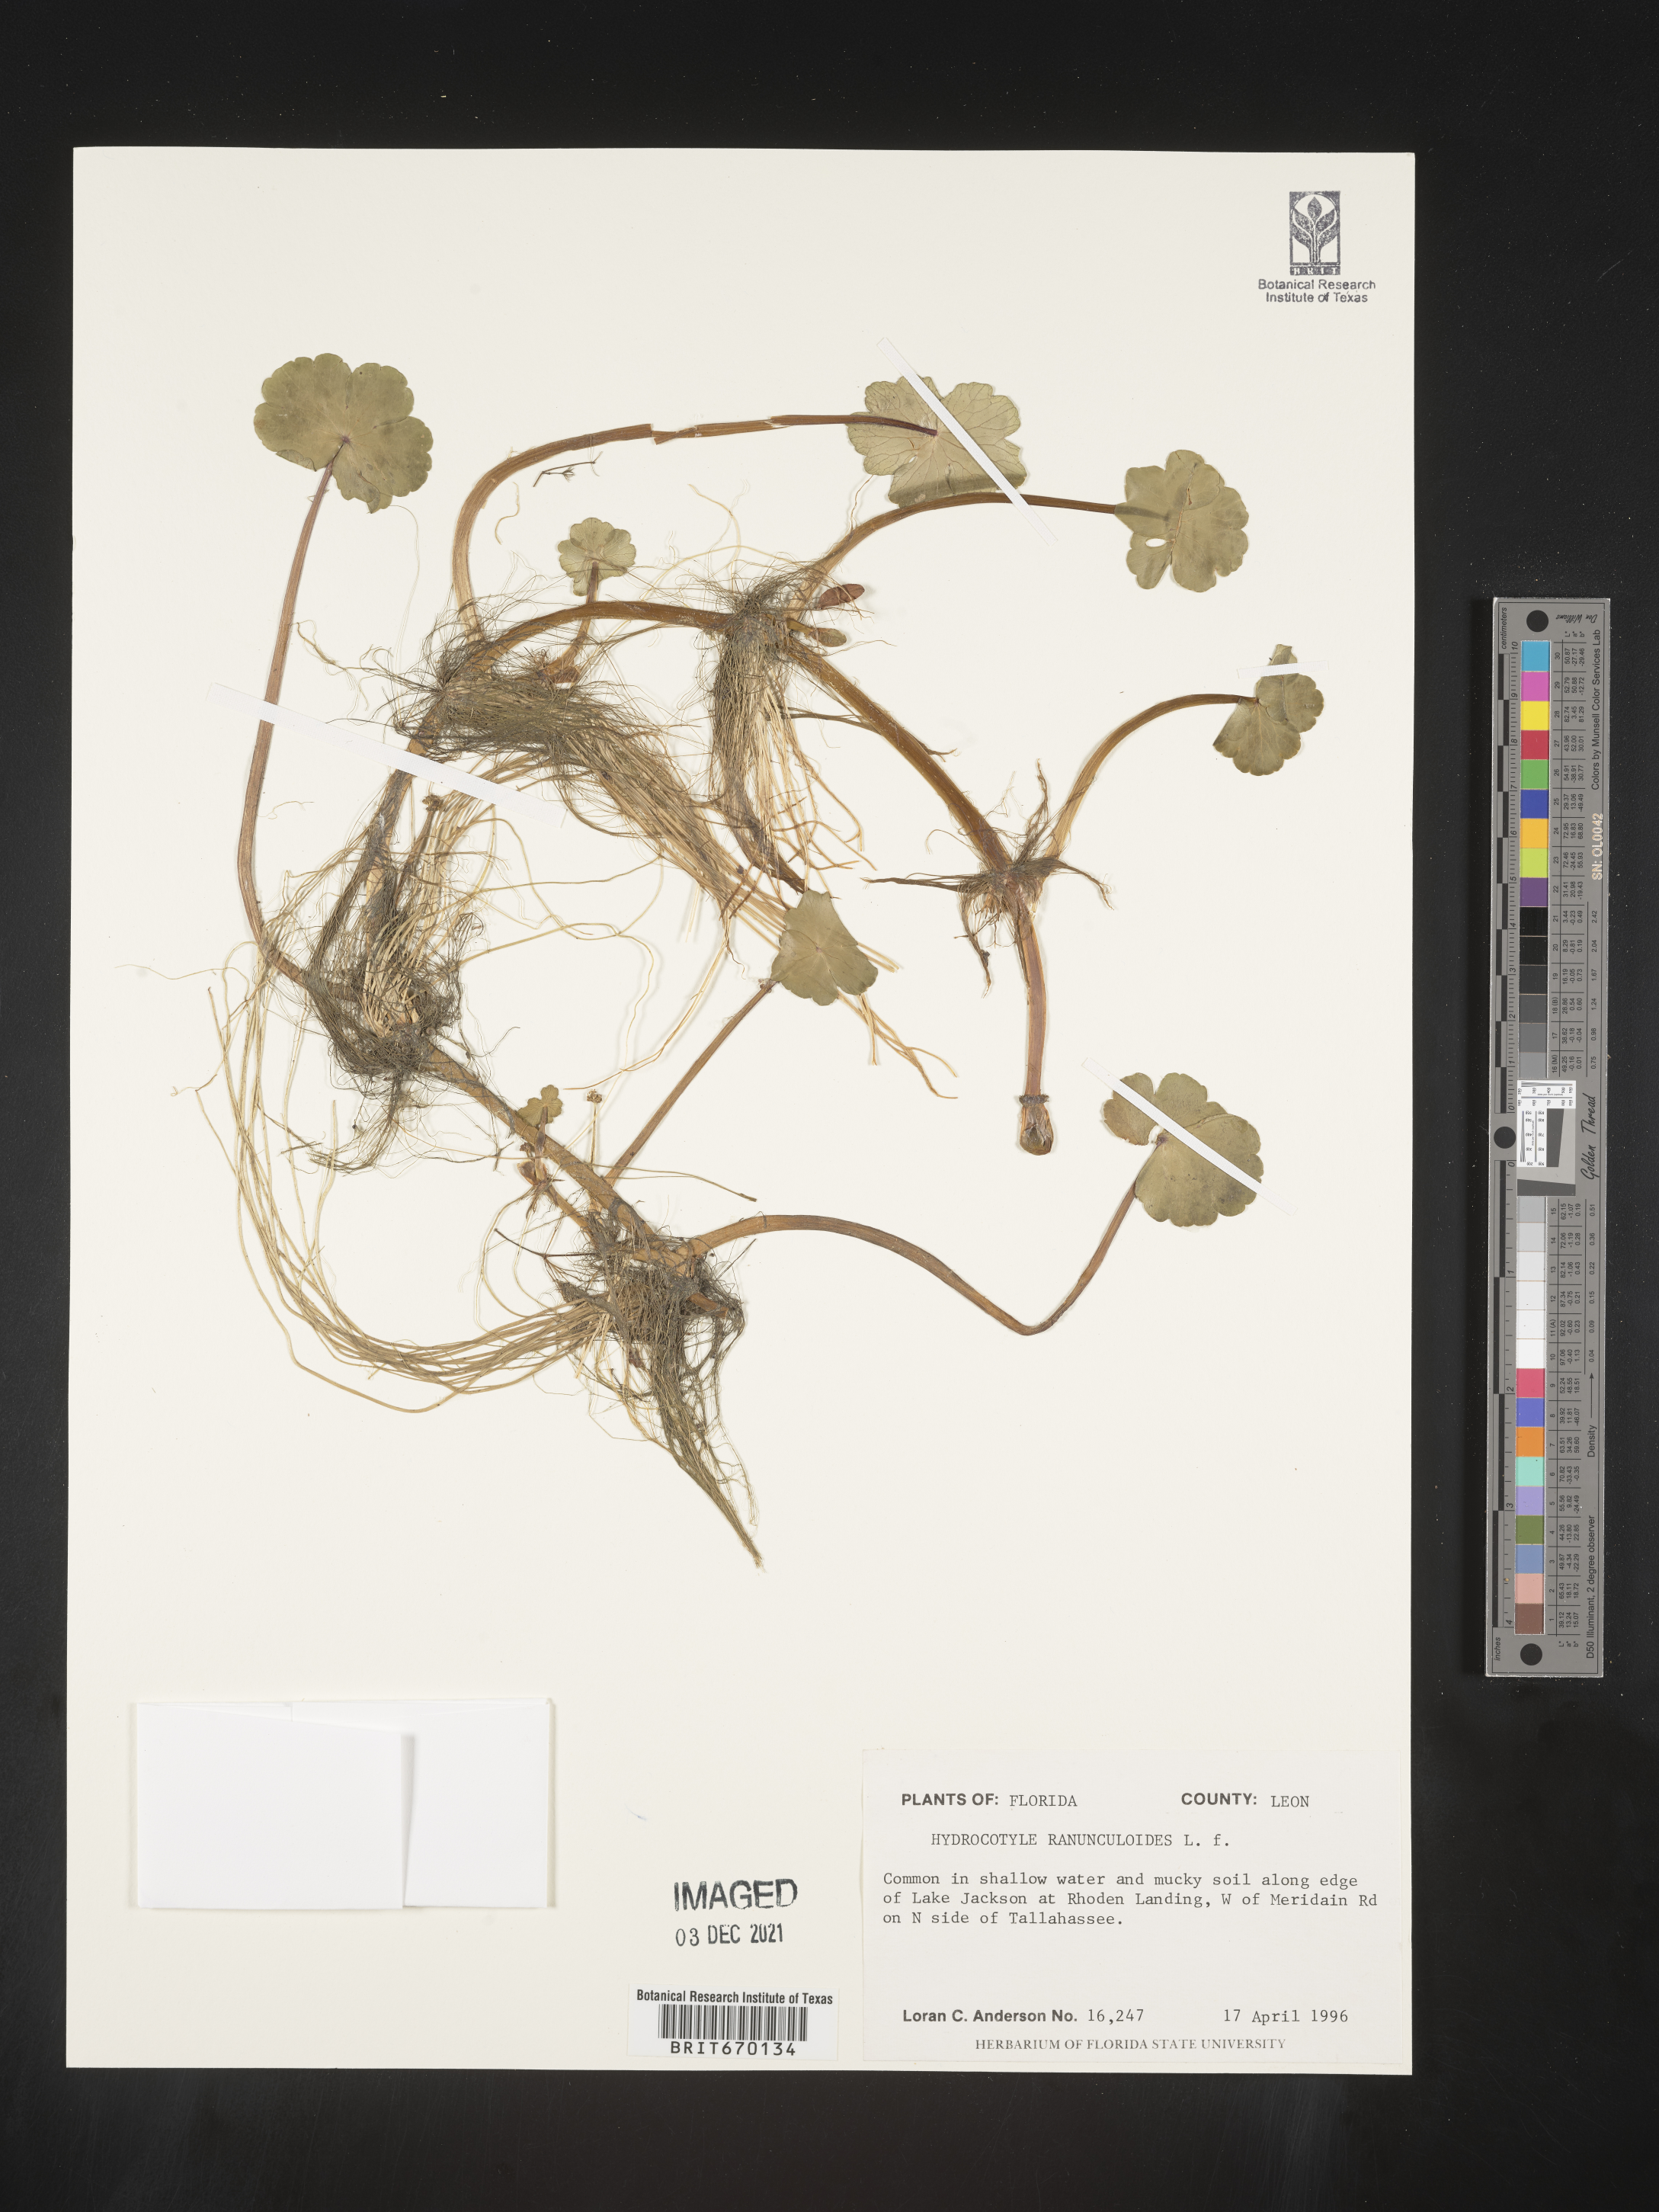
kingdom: Plantae
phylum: Tracheophyta
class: Magnoliopsida
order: Apiales
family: Araliaceae
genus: Hydrocotyle
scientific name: Hydrocotyle ranunculoides
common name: Floating pennywort
